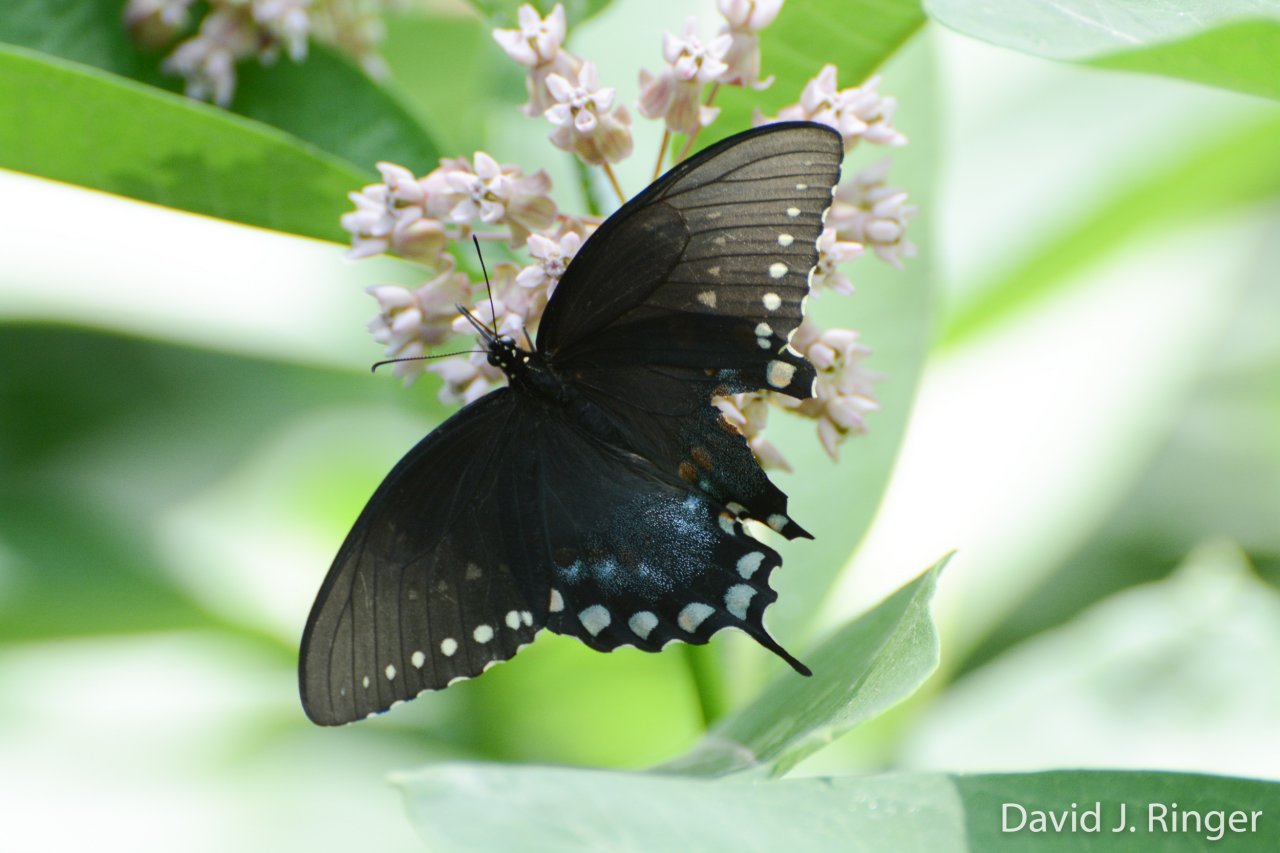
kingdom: Animalia
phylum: Arthropoda
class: Insecta
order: Lepidoptera
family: Papilionidae
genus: Pterourus
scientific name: Pterourus troilus
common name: Spicebush Swallowtail
